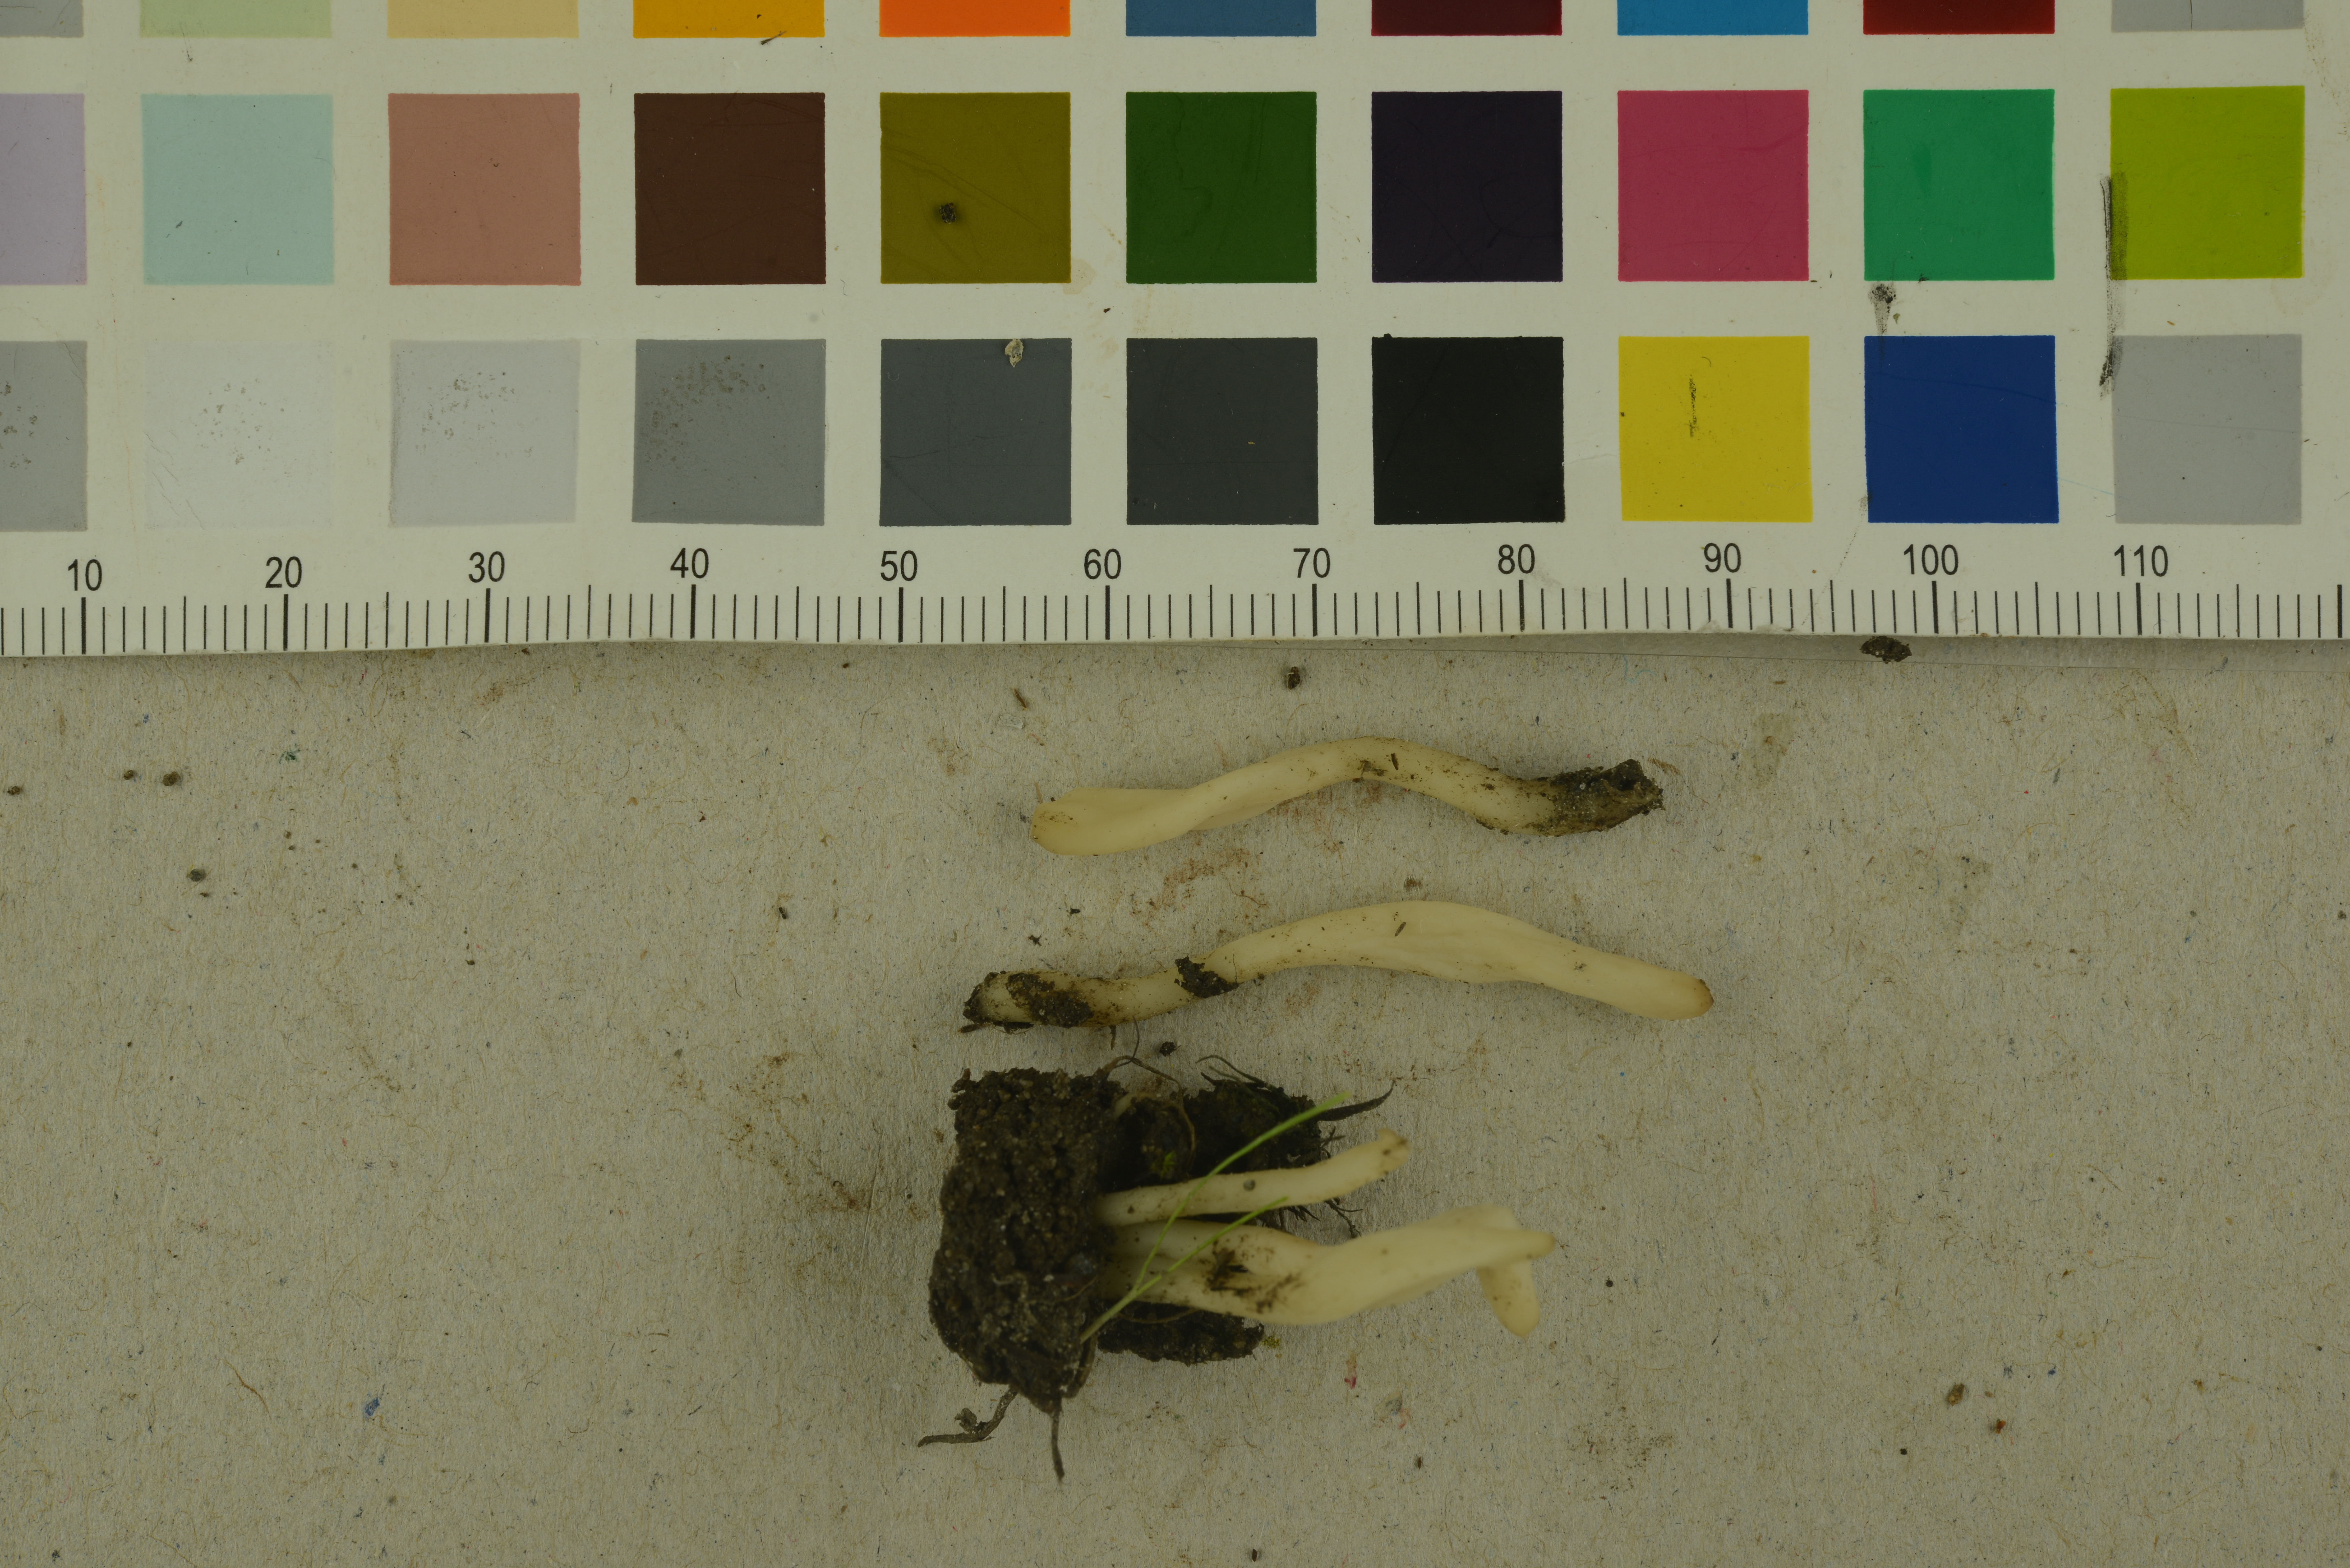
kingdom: Fungi
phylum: Basidiomycota
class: Agaricomycetes
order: Cantharellales
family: Hydnaceae
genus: Clavulina
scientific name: Clavulina rugosa
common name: Wrinkled club
